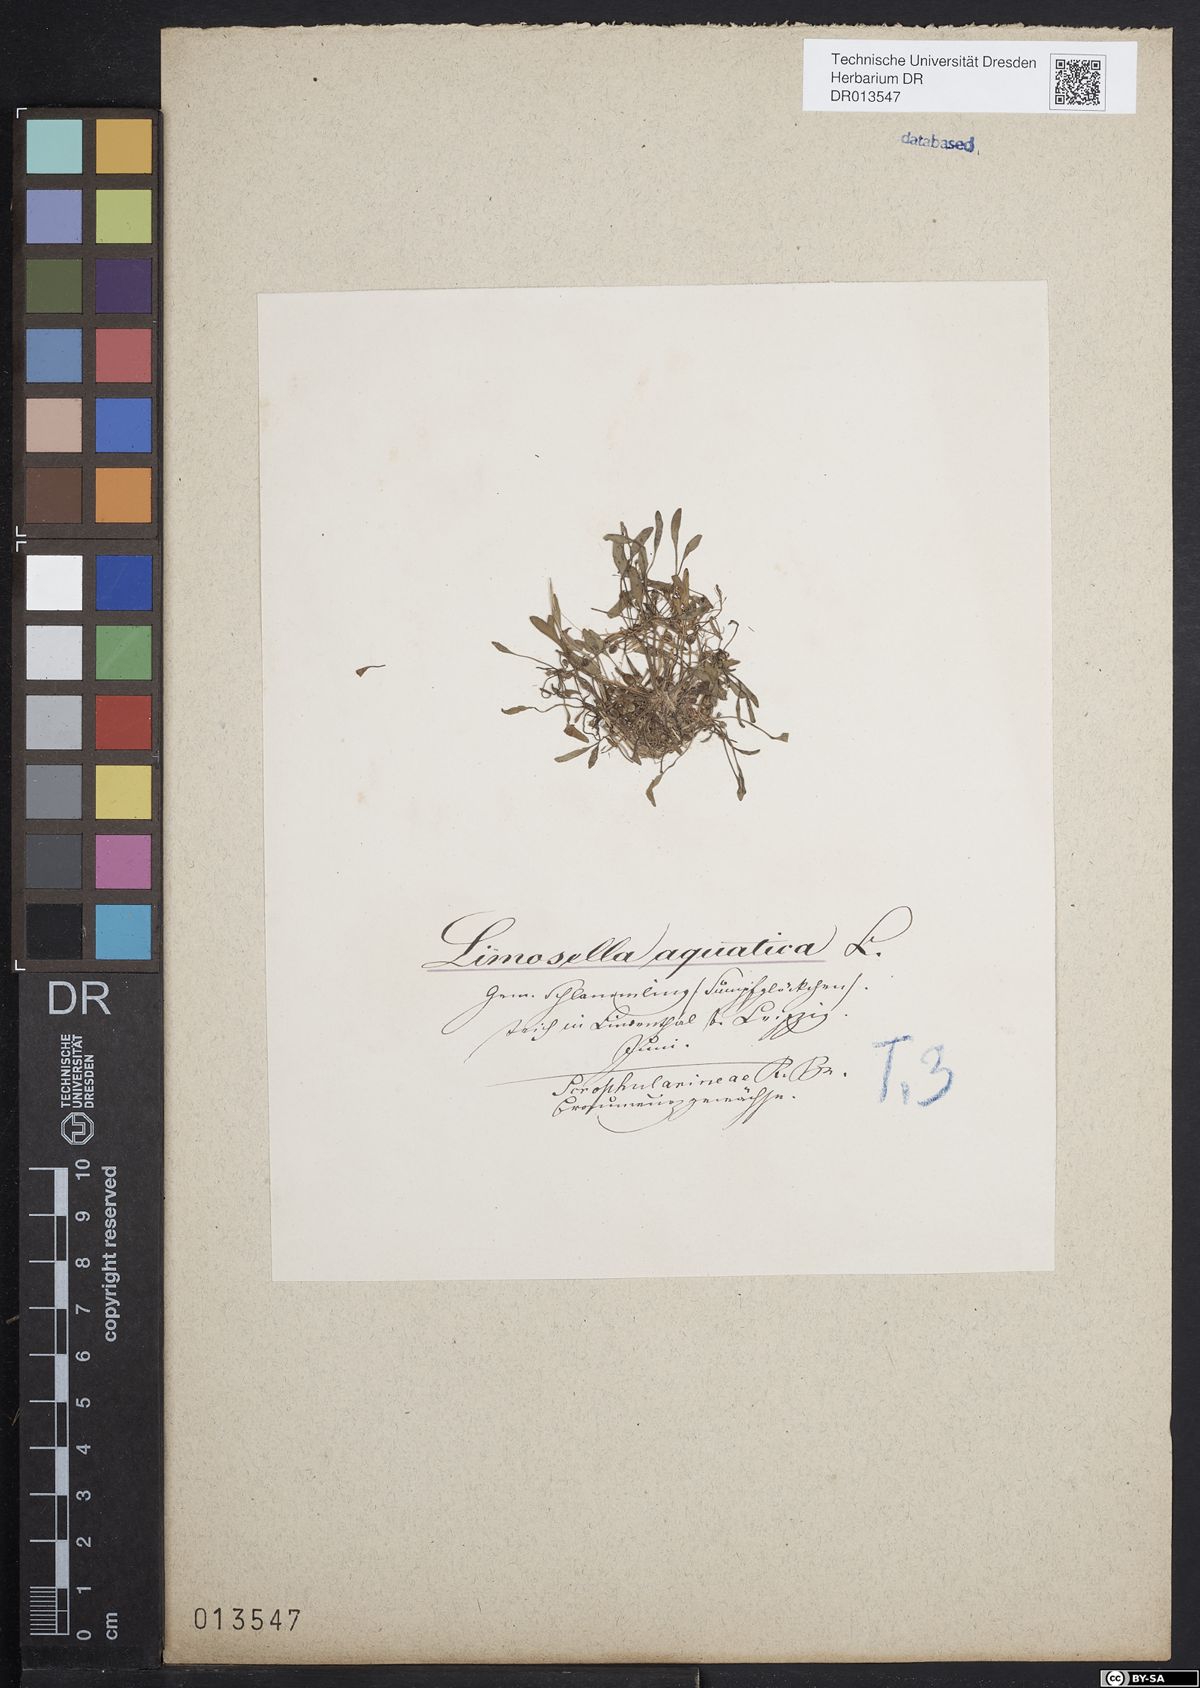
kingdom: Plantae
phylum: Tracheophyta
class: Magnoliopsida
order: Lamiales
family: Scrophulariaceae
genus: Limosella
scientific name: Limosella aquatica
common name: Mudwort
